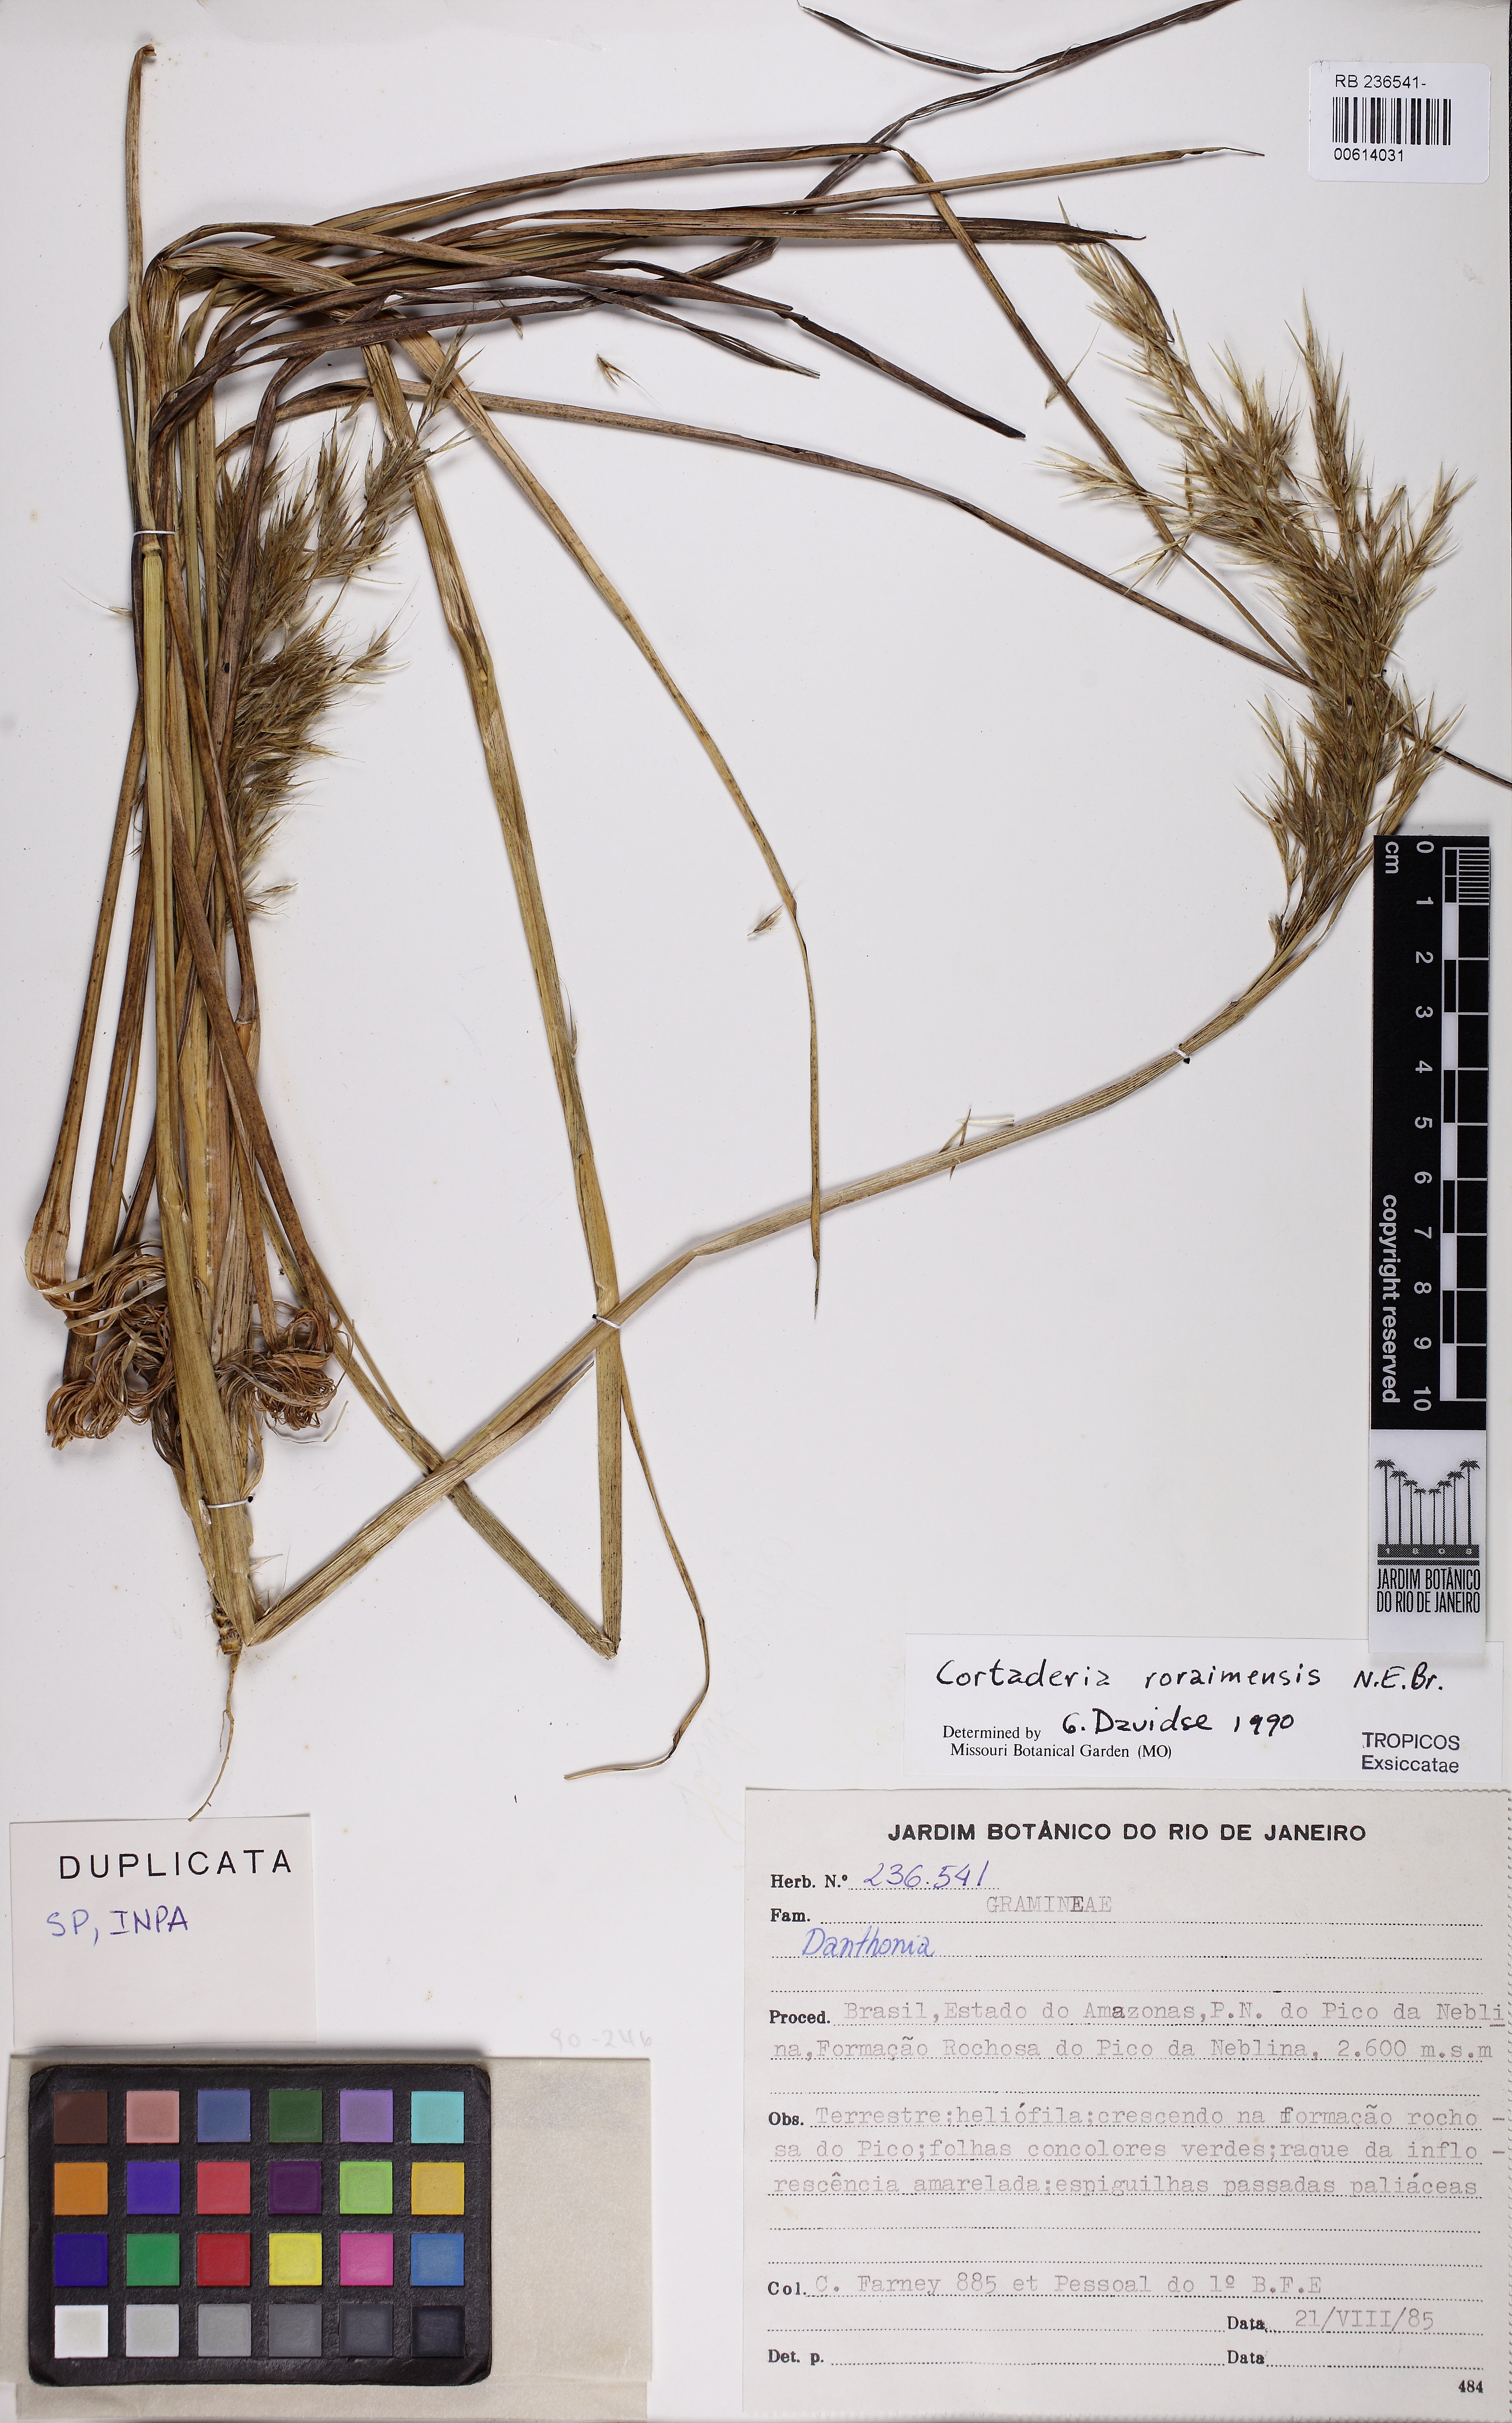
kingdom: Plantae
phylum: Tracheophyta
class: Liliopsida
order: Poales
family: Poaceae
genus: Cortaderia
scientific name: Cortaderia roraimensis
